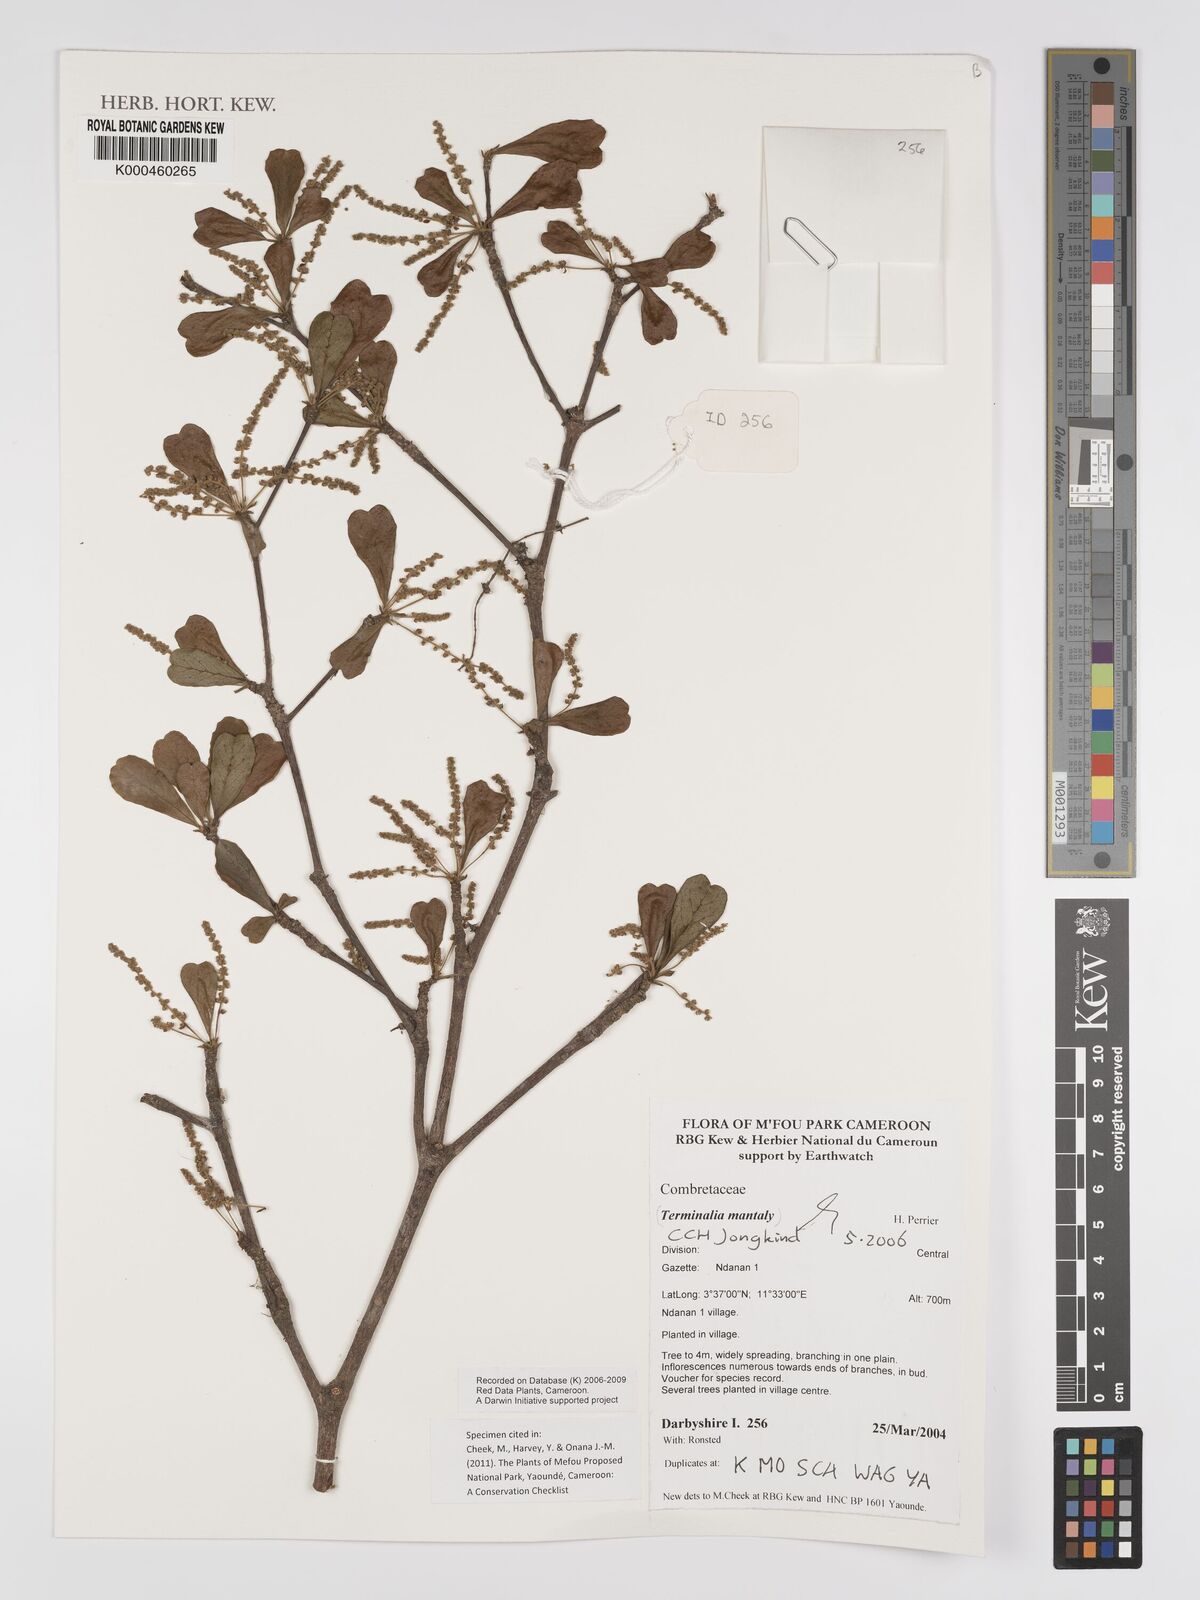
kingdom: Plantae
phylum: Tracheophyta
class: Magnoliopsida
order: Myrtales
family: Combretaceae
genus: Terminalia
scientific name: Terminalia neotaliala
